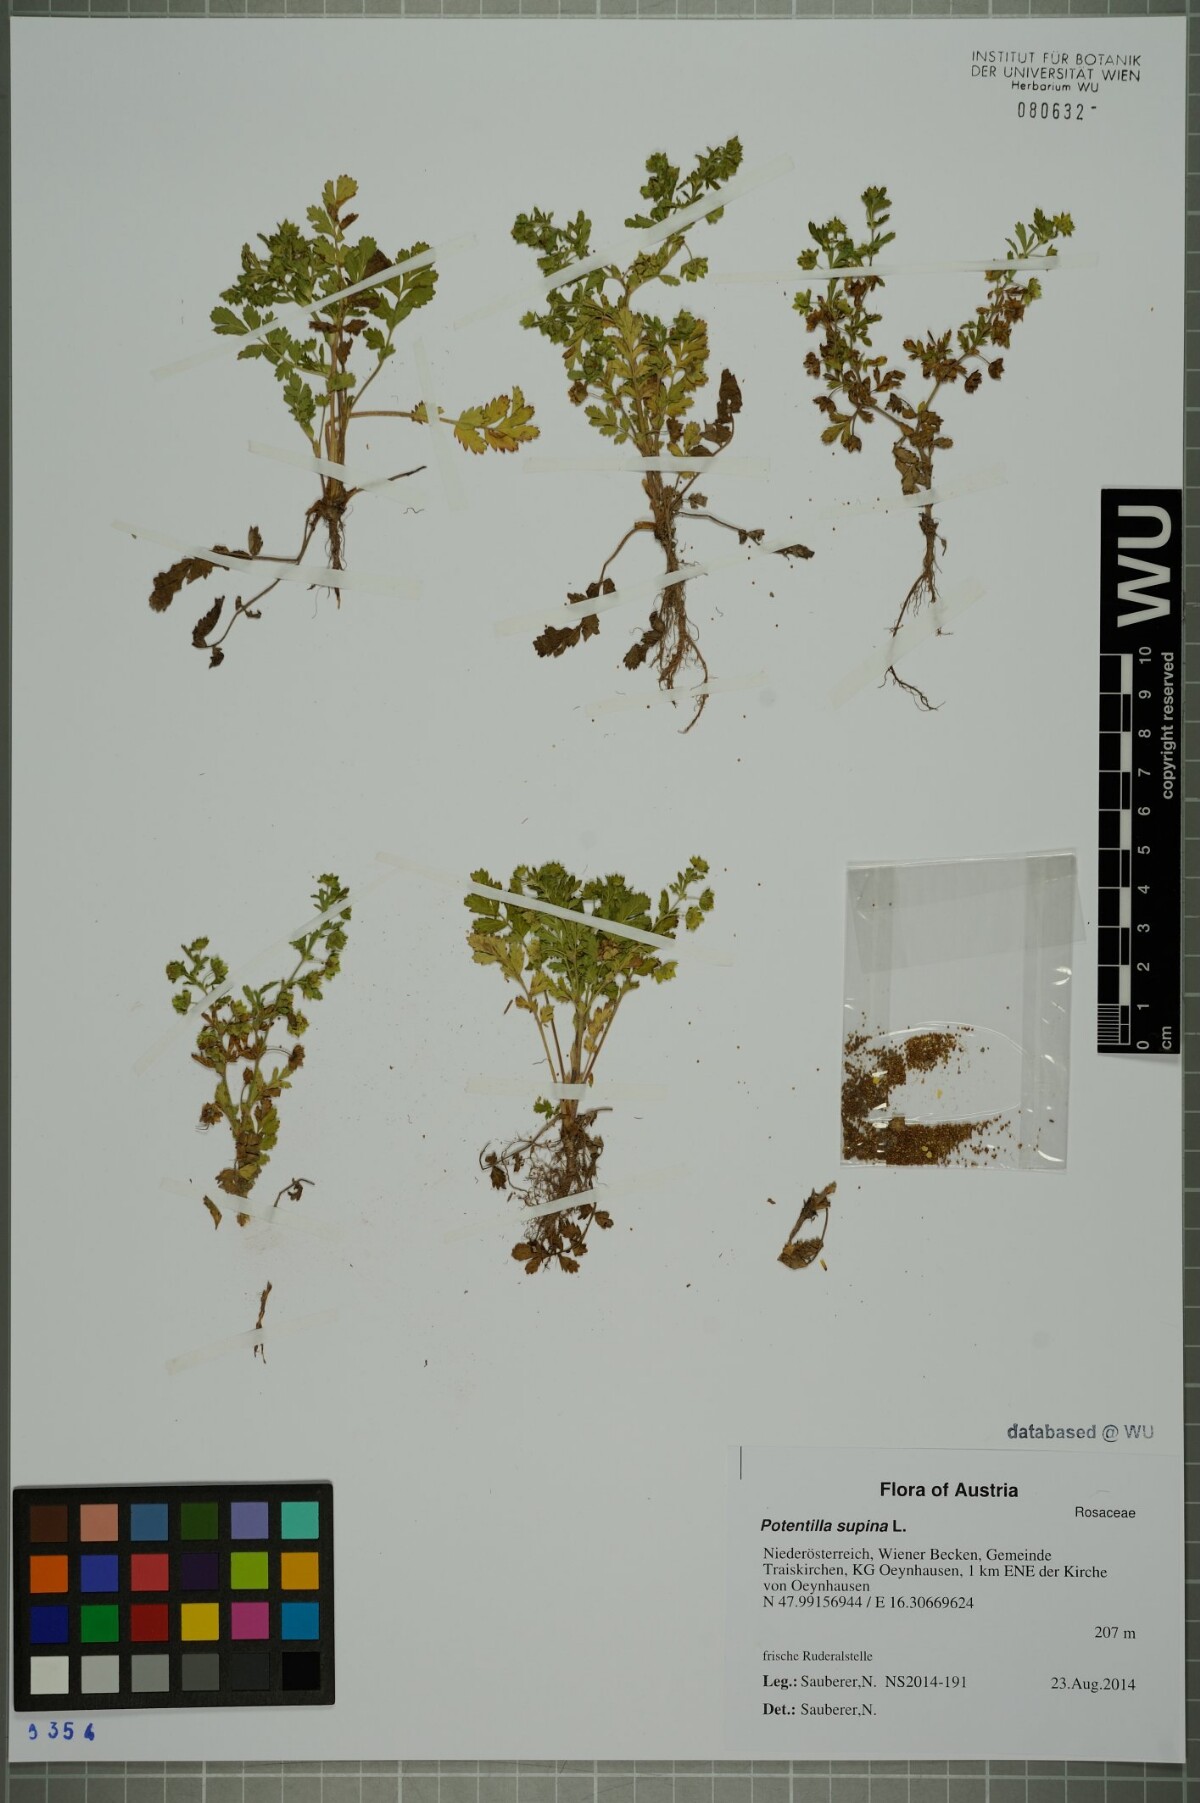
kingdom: Plantae
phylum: Tracheophyta
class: Magnoliopsida
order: Rosales
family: Rosaceae
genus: Potentilla
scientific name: Potentilla supina
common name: Prostrate cinquefoil
